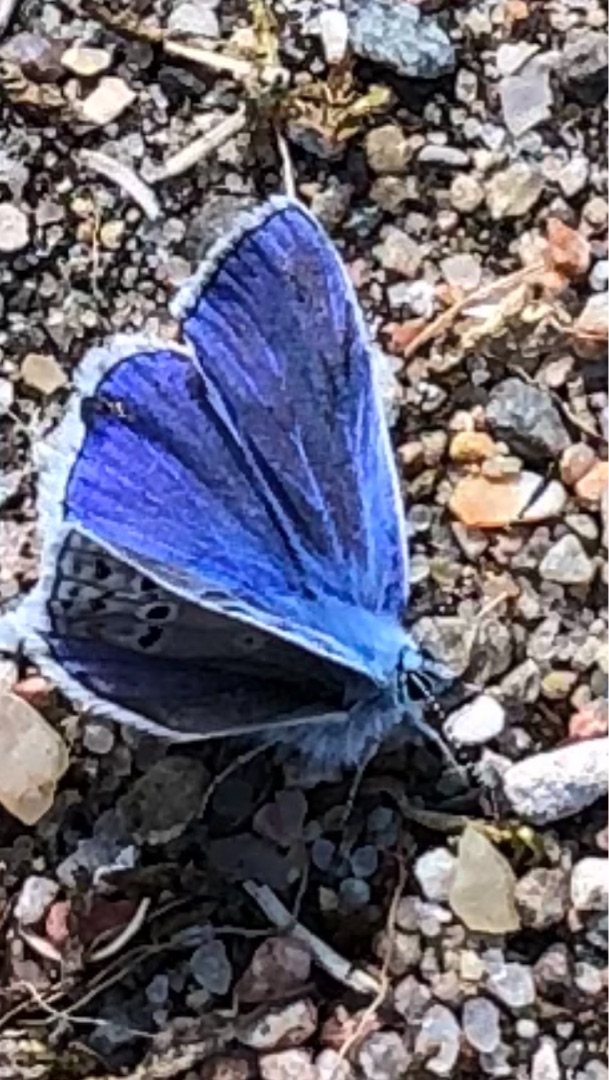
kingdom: Animalia
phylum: Arthropoda
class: Insecta
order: Lepidoptera
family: Lycaenidae
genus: Polyommatus
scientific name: Polyommatus icarus
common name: Almindelig blåfugl
